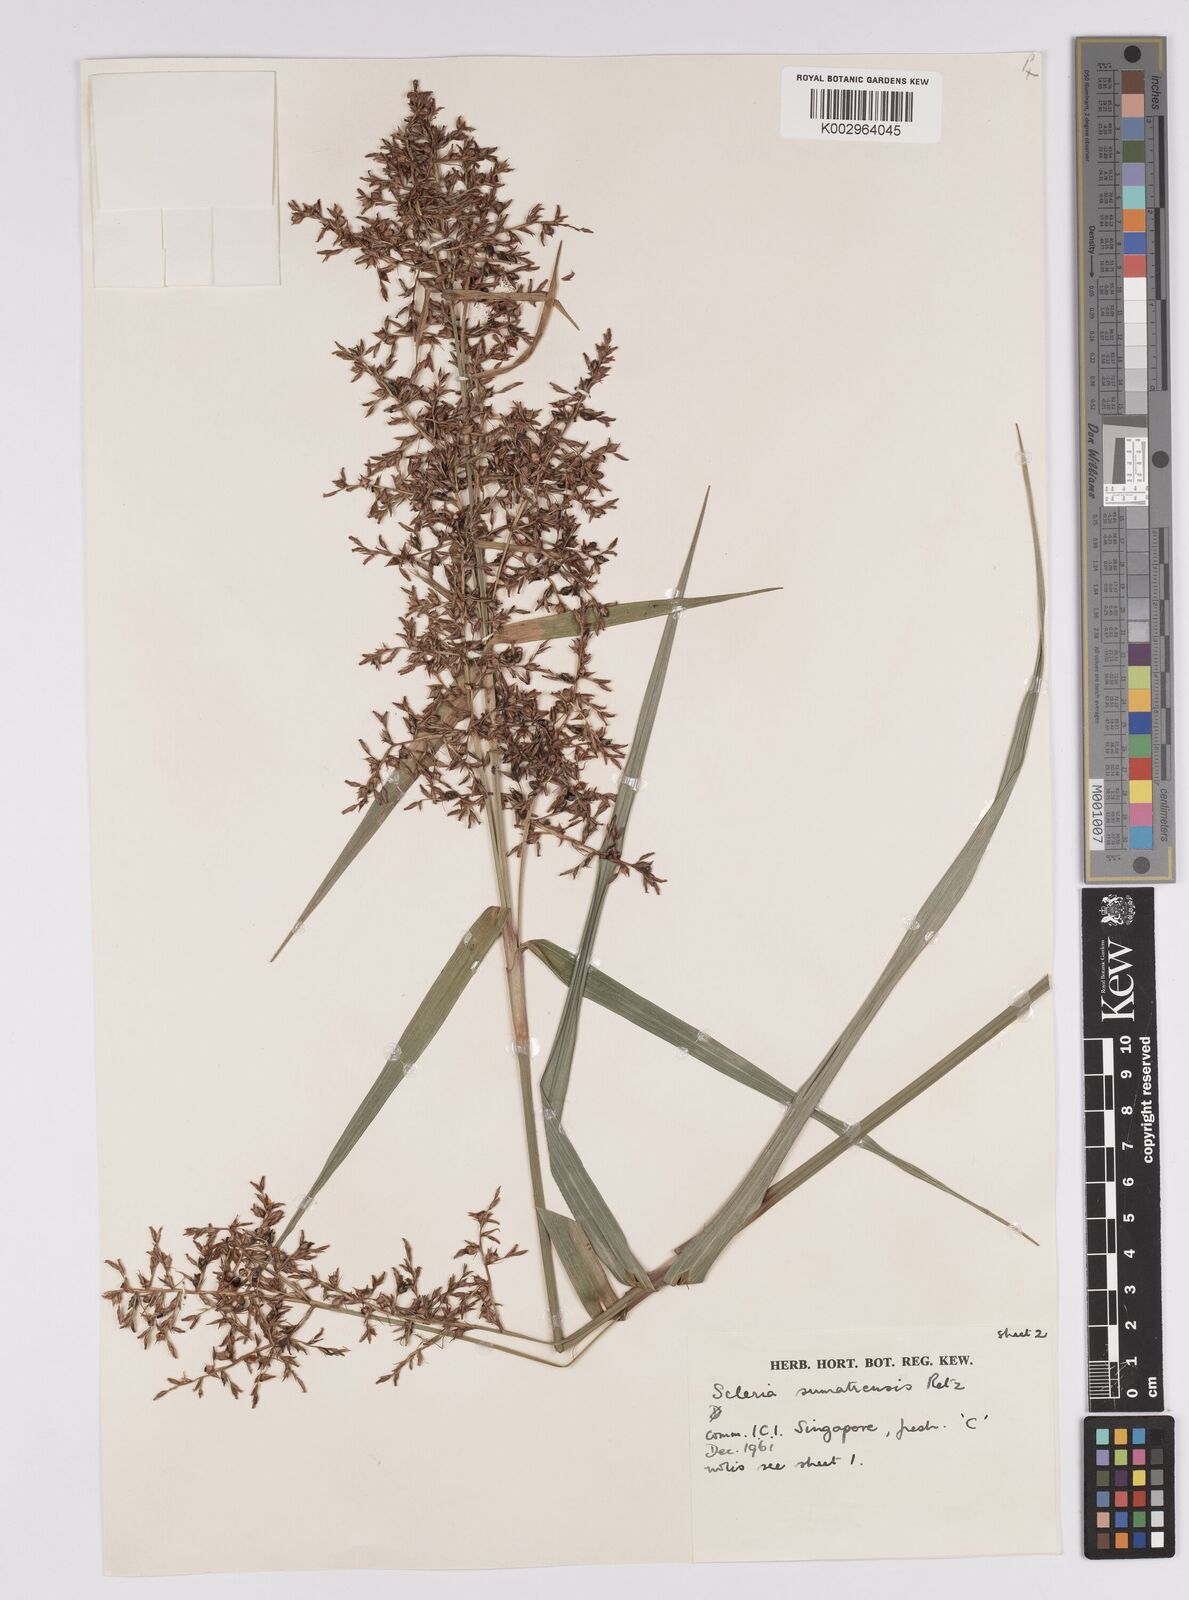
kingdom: Plantae
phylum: Tracheophyta
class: Liliopsida
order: Poales
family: Cyperaceae
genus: Scleria
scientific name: Scleria sumatrensis
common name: Sumatran scleria
